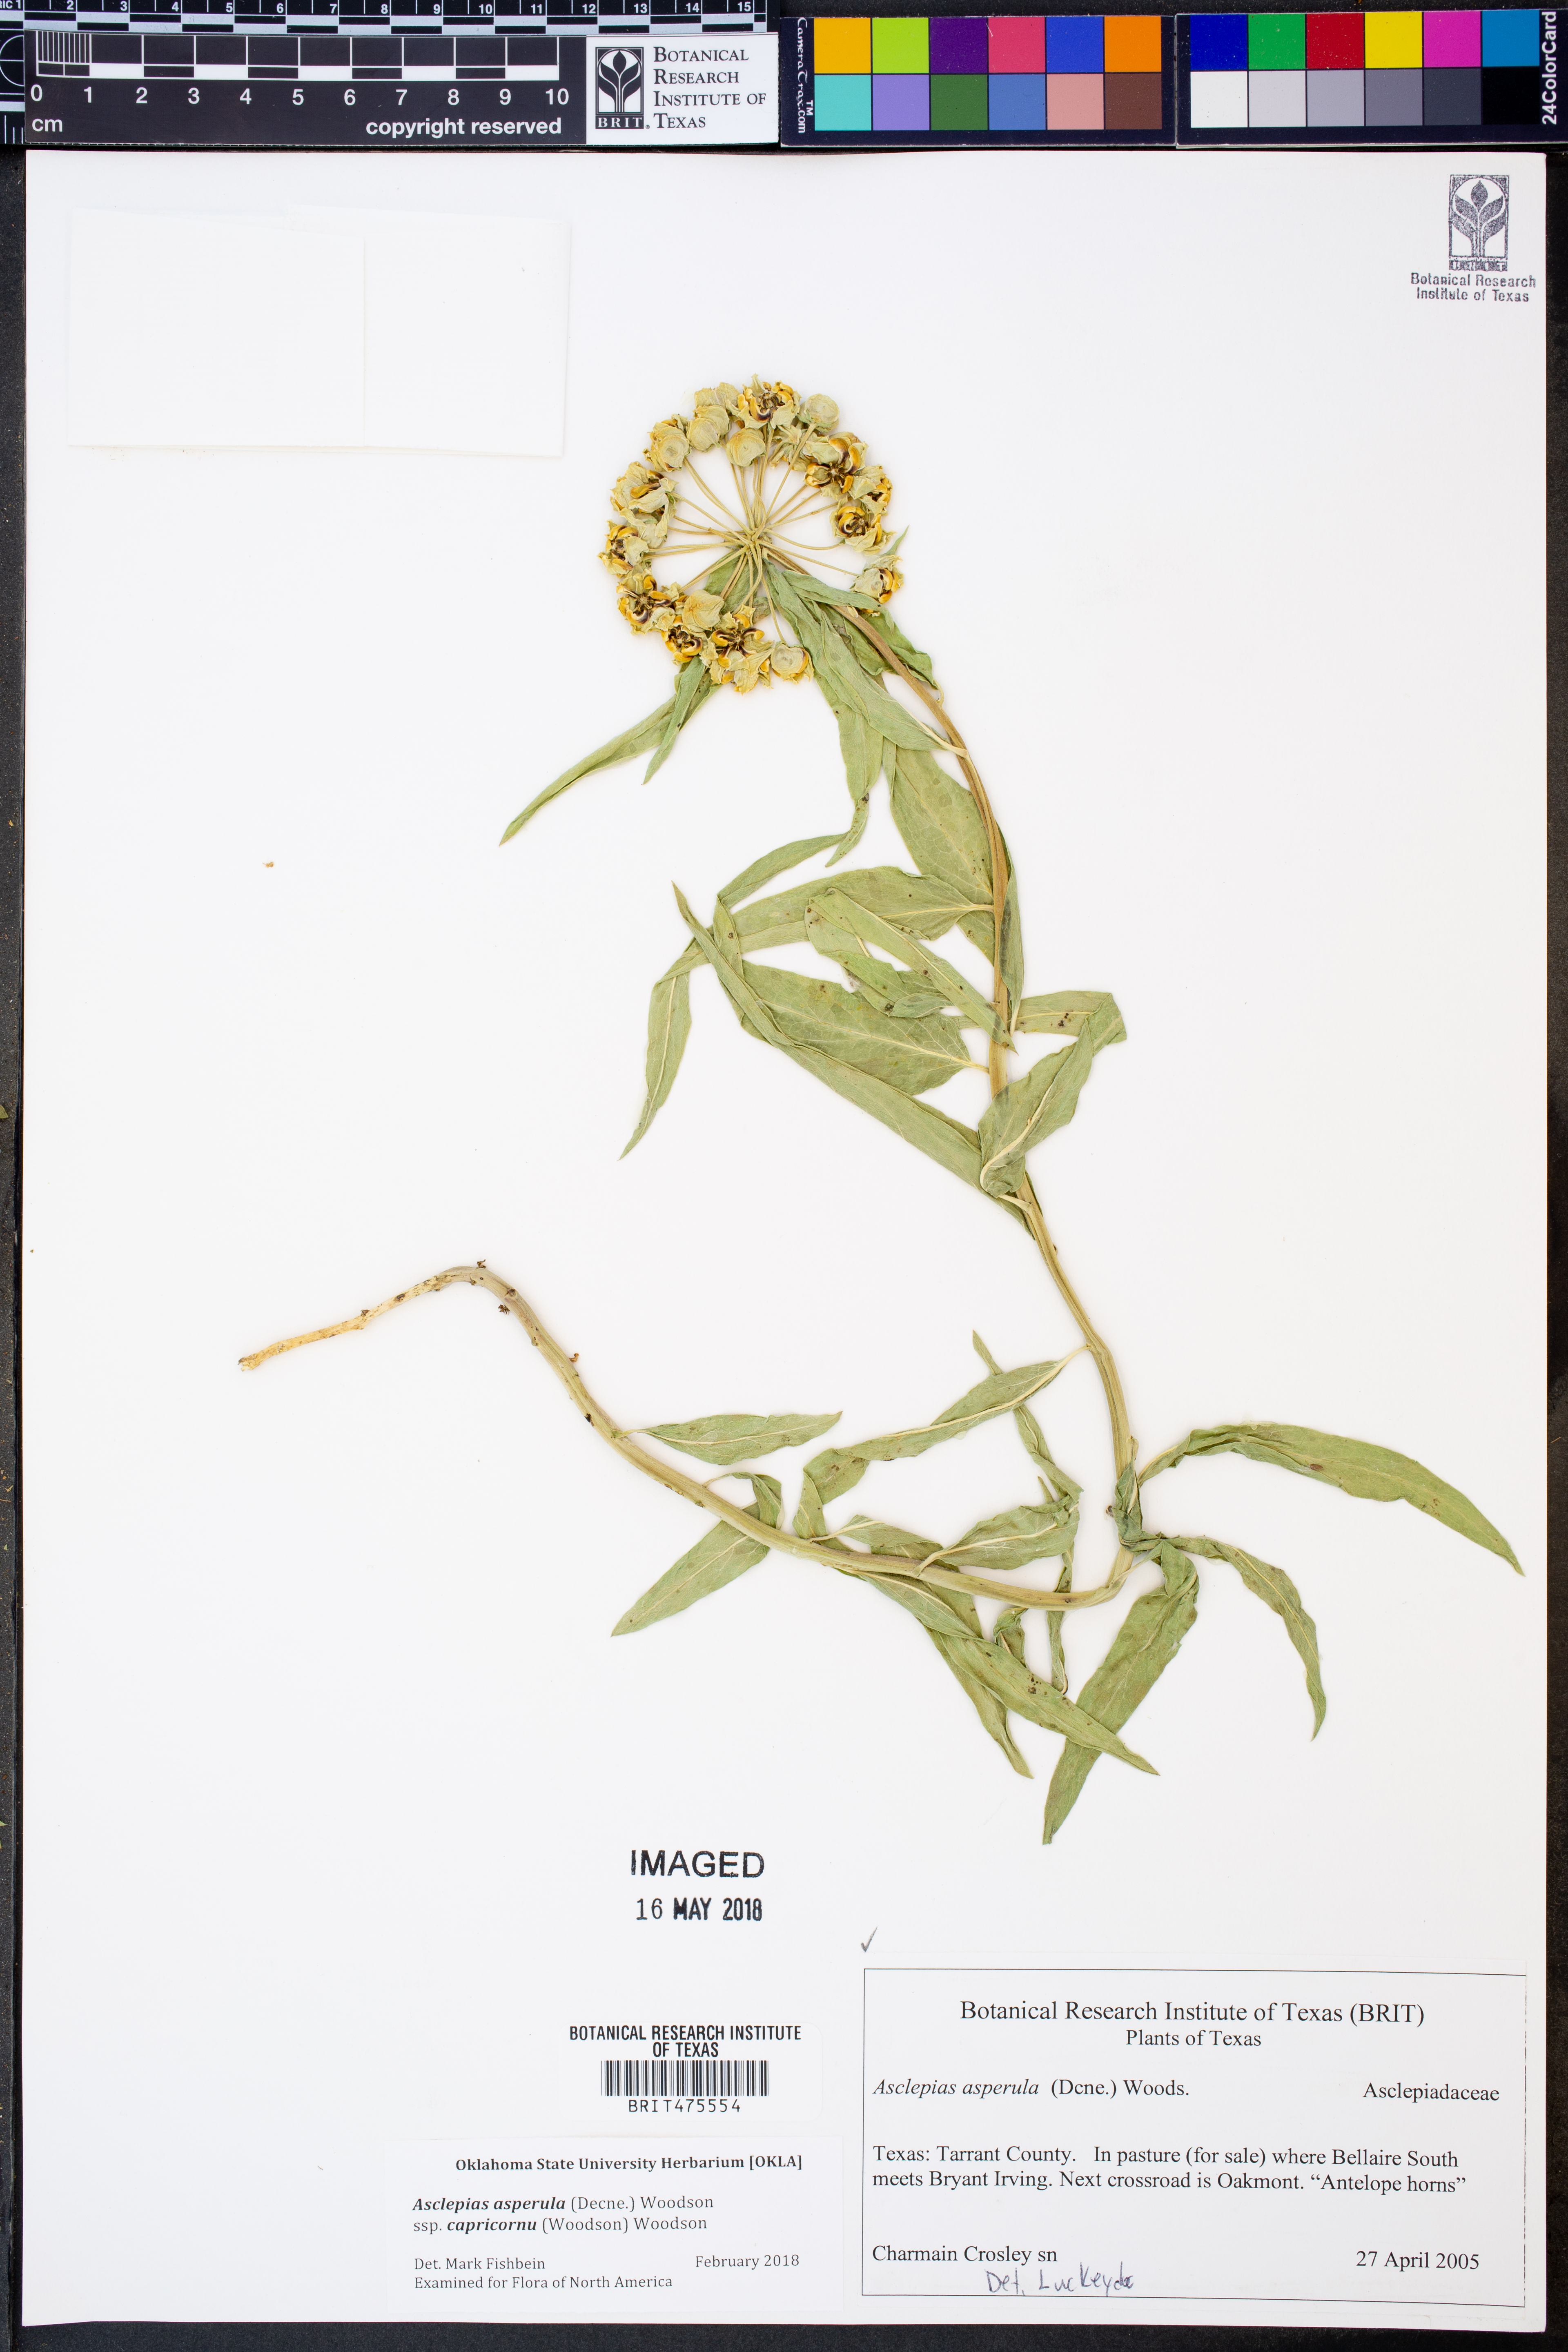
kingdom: Plantae
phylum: Tracheophyta
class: Magnoliopsida
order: Gentianales
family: Apocynaceae
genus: Asclepias
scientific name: Asclepias asperula
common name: Antelope horns
